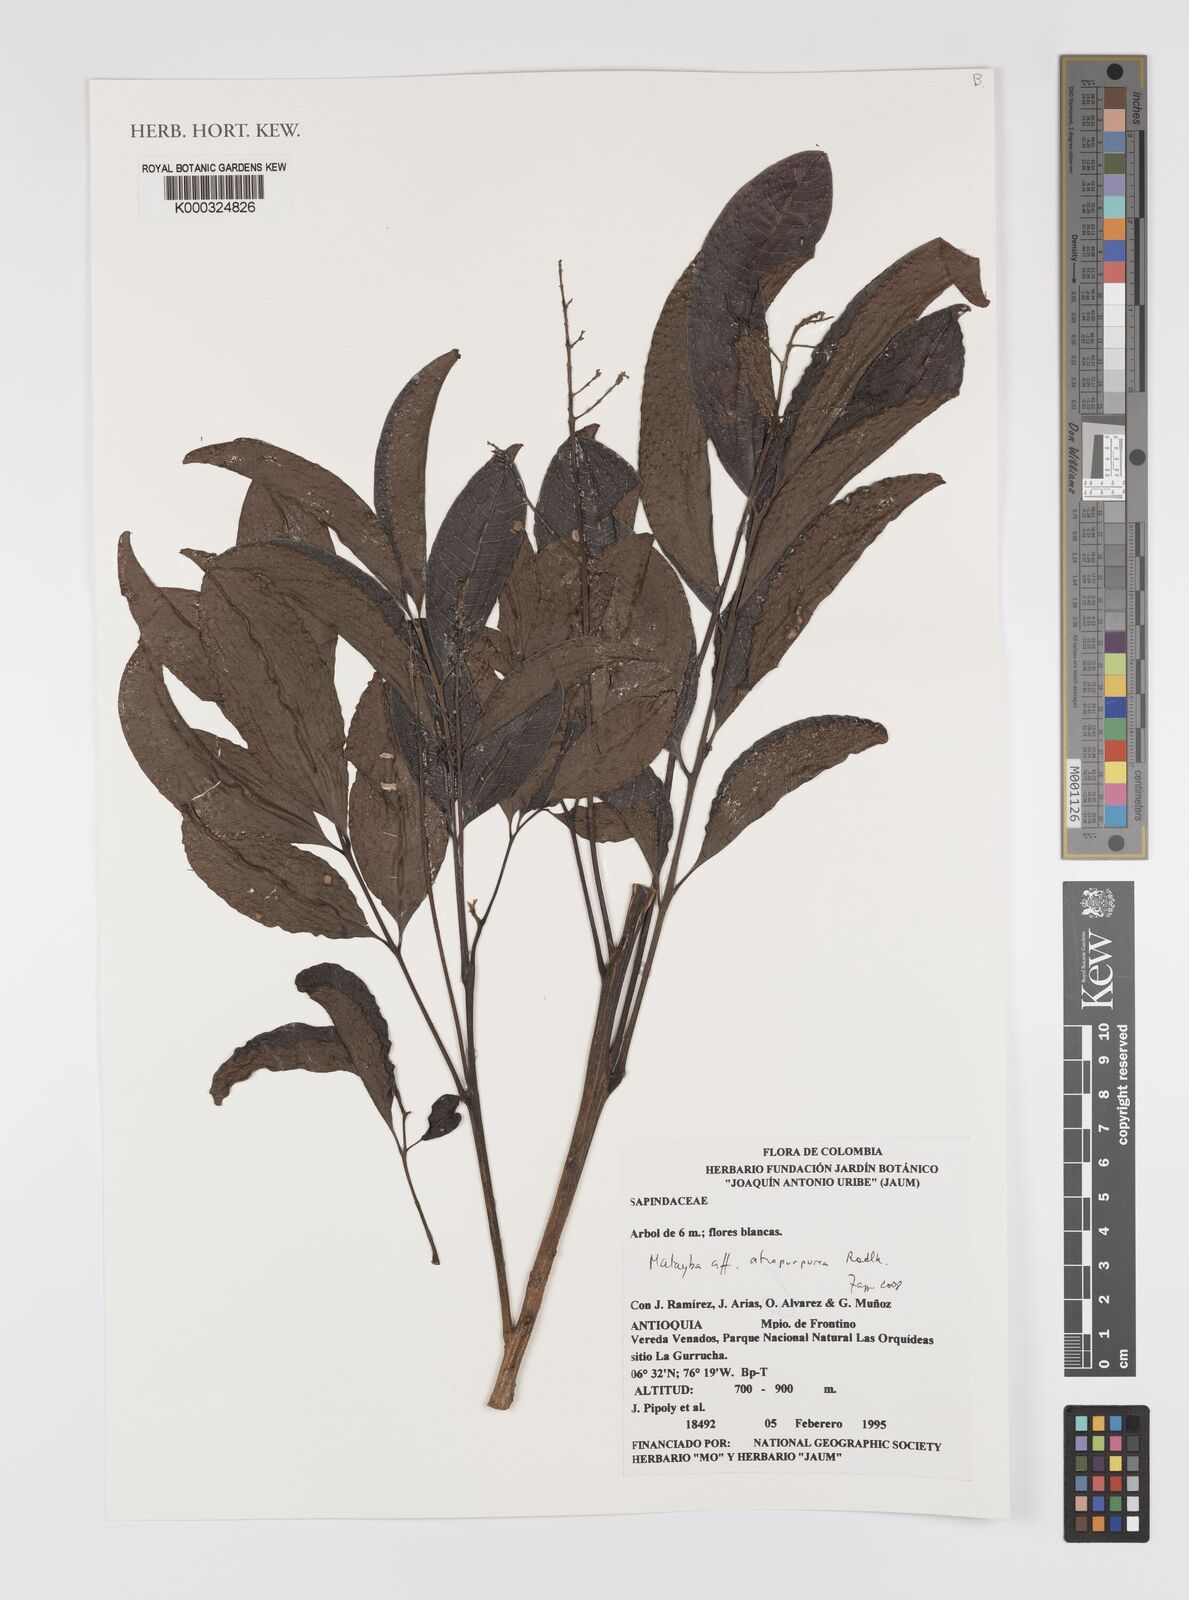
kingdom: Plantae
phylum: Tracheophyta
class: Magnoliopsida
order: Sapindales
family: Sapindaceae
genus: Matayba
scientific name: Matayba atropurpurea
